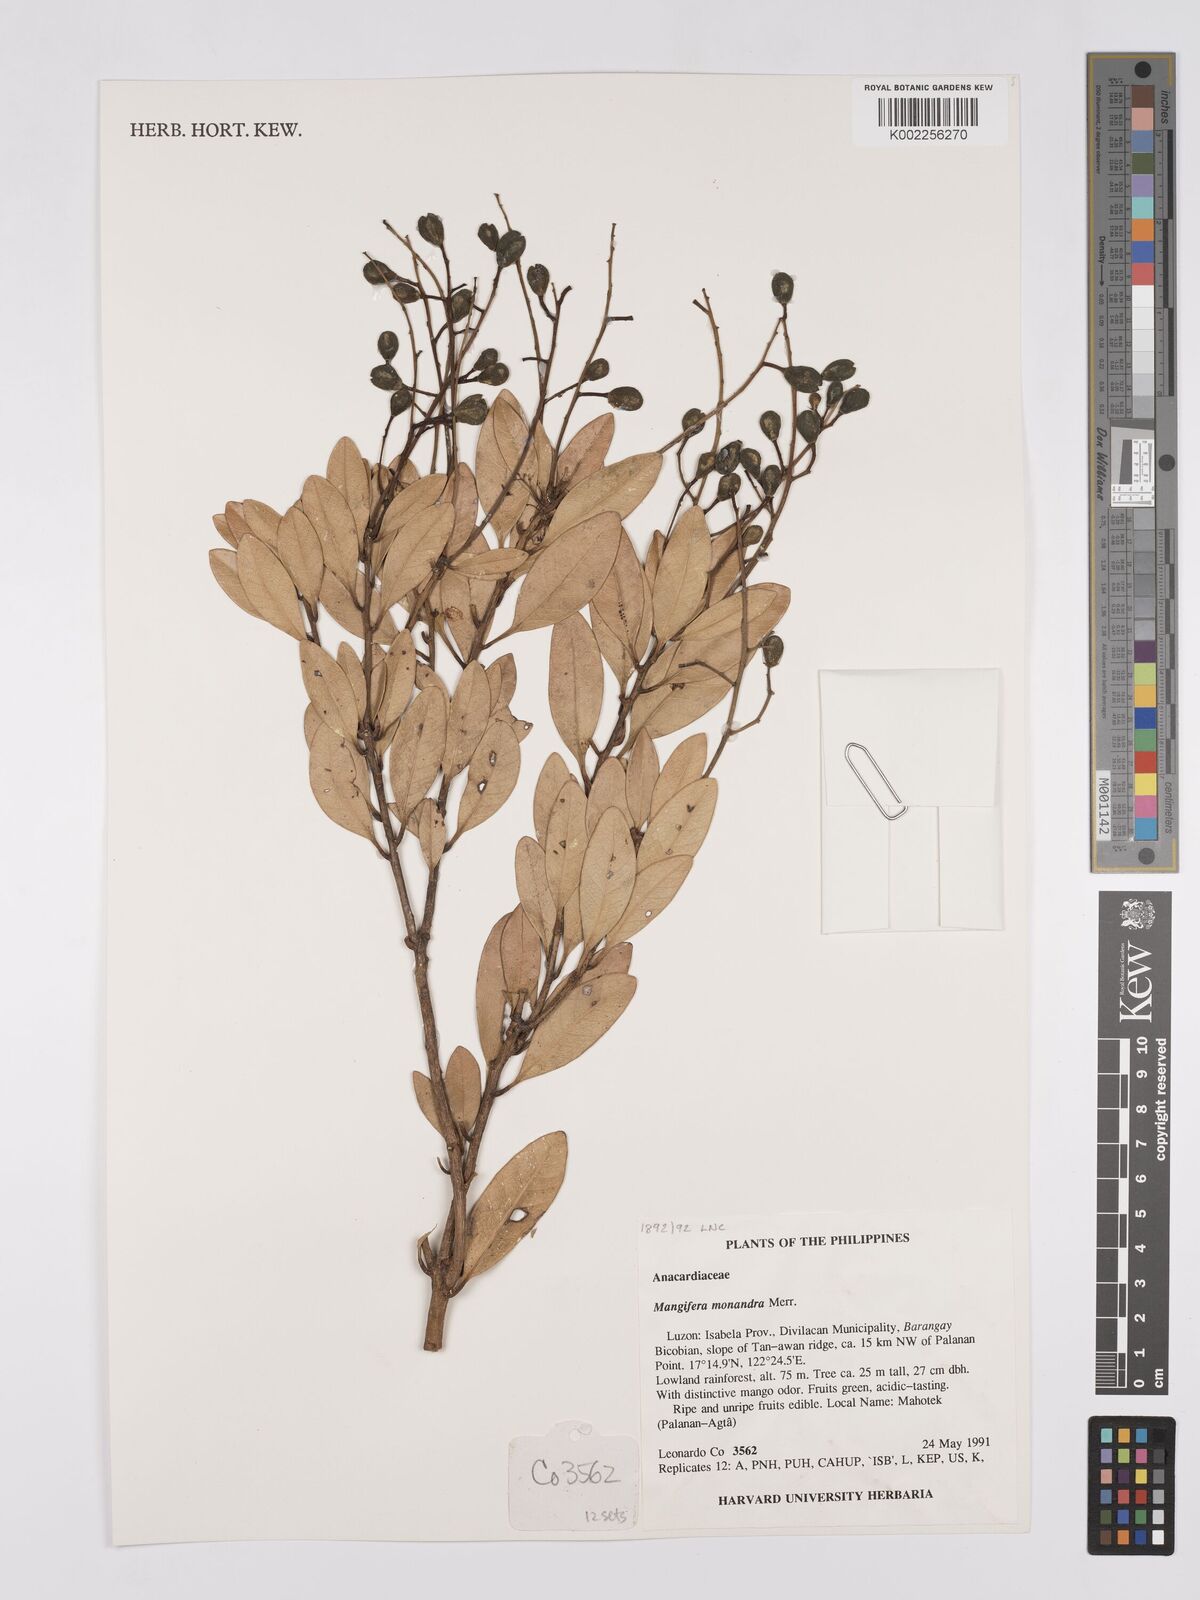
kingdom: Plantae
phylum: Tracheophyta
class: Magnoliopsida
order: Sapindales
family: Anacardiaceae
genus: Mangifera
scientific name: Mangifera monandra
